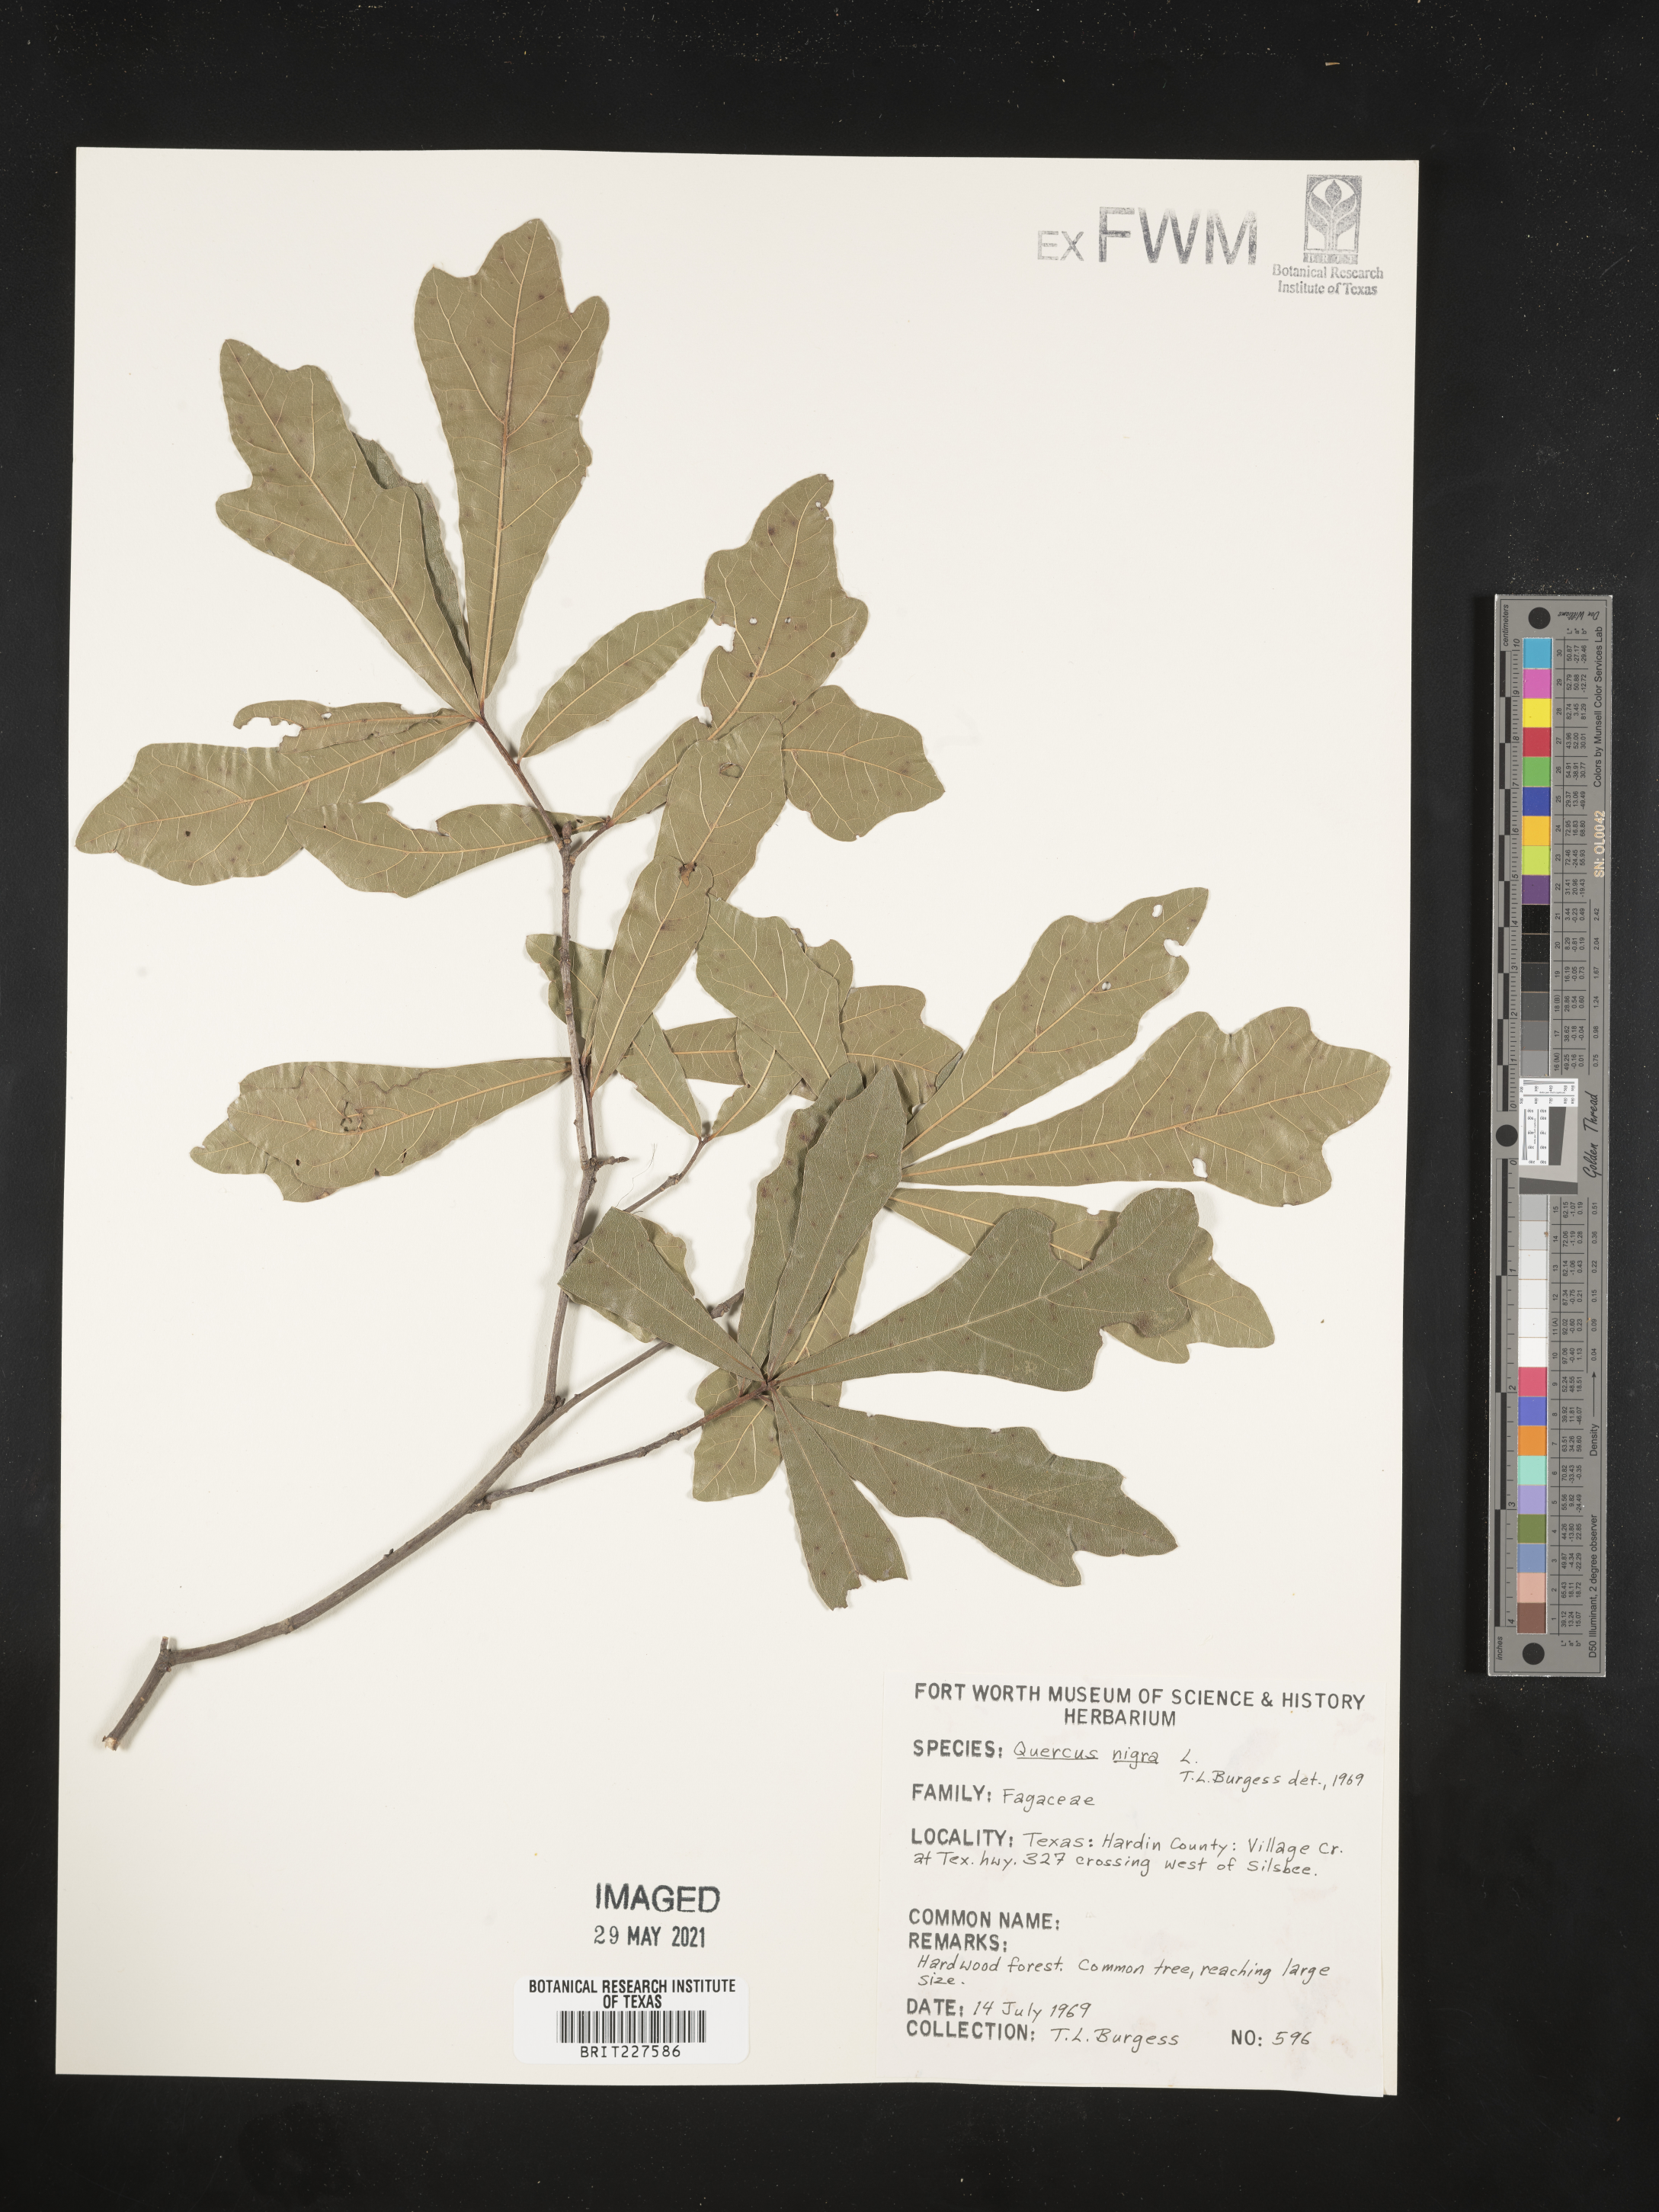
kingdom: Plantae
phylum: Tracheophyta
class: Magnoliopsida
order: Fagales
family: Fagaceae
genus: Quercus
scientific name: Quercus nigra
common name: Water oak
